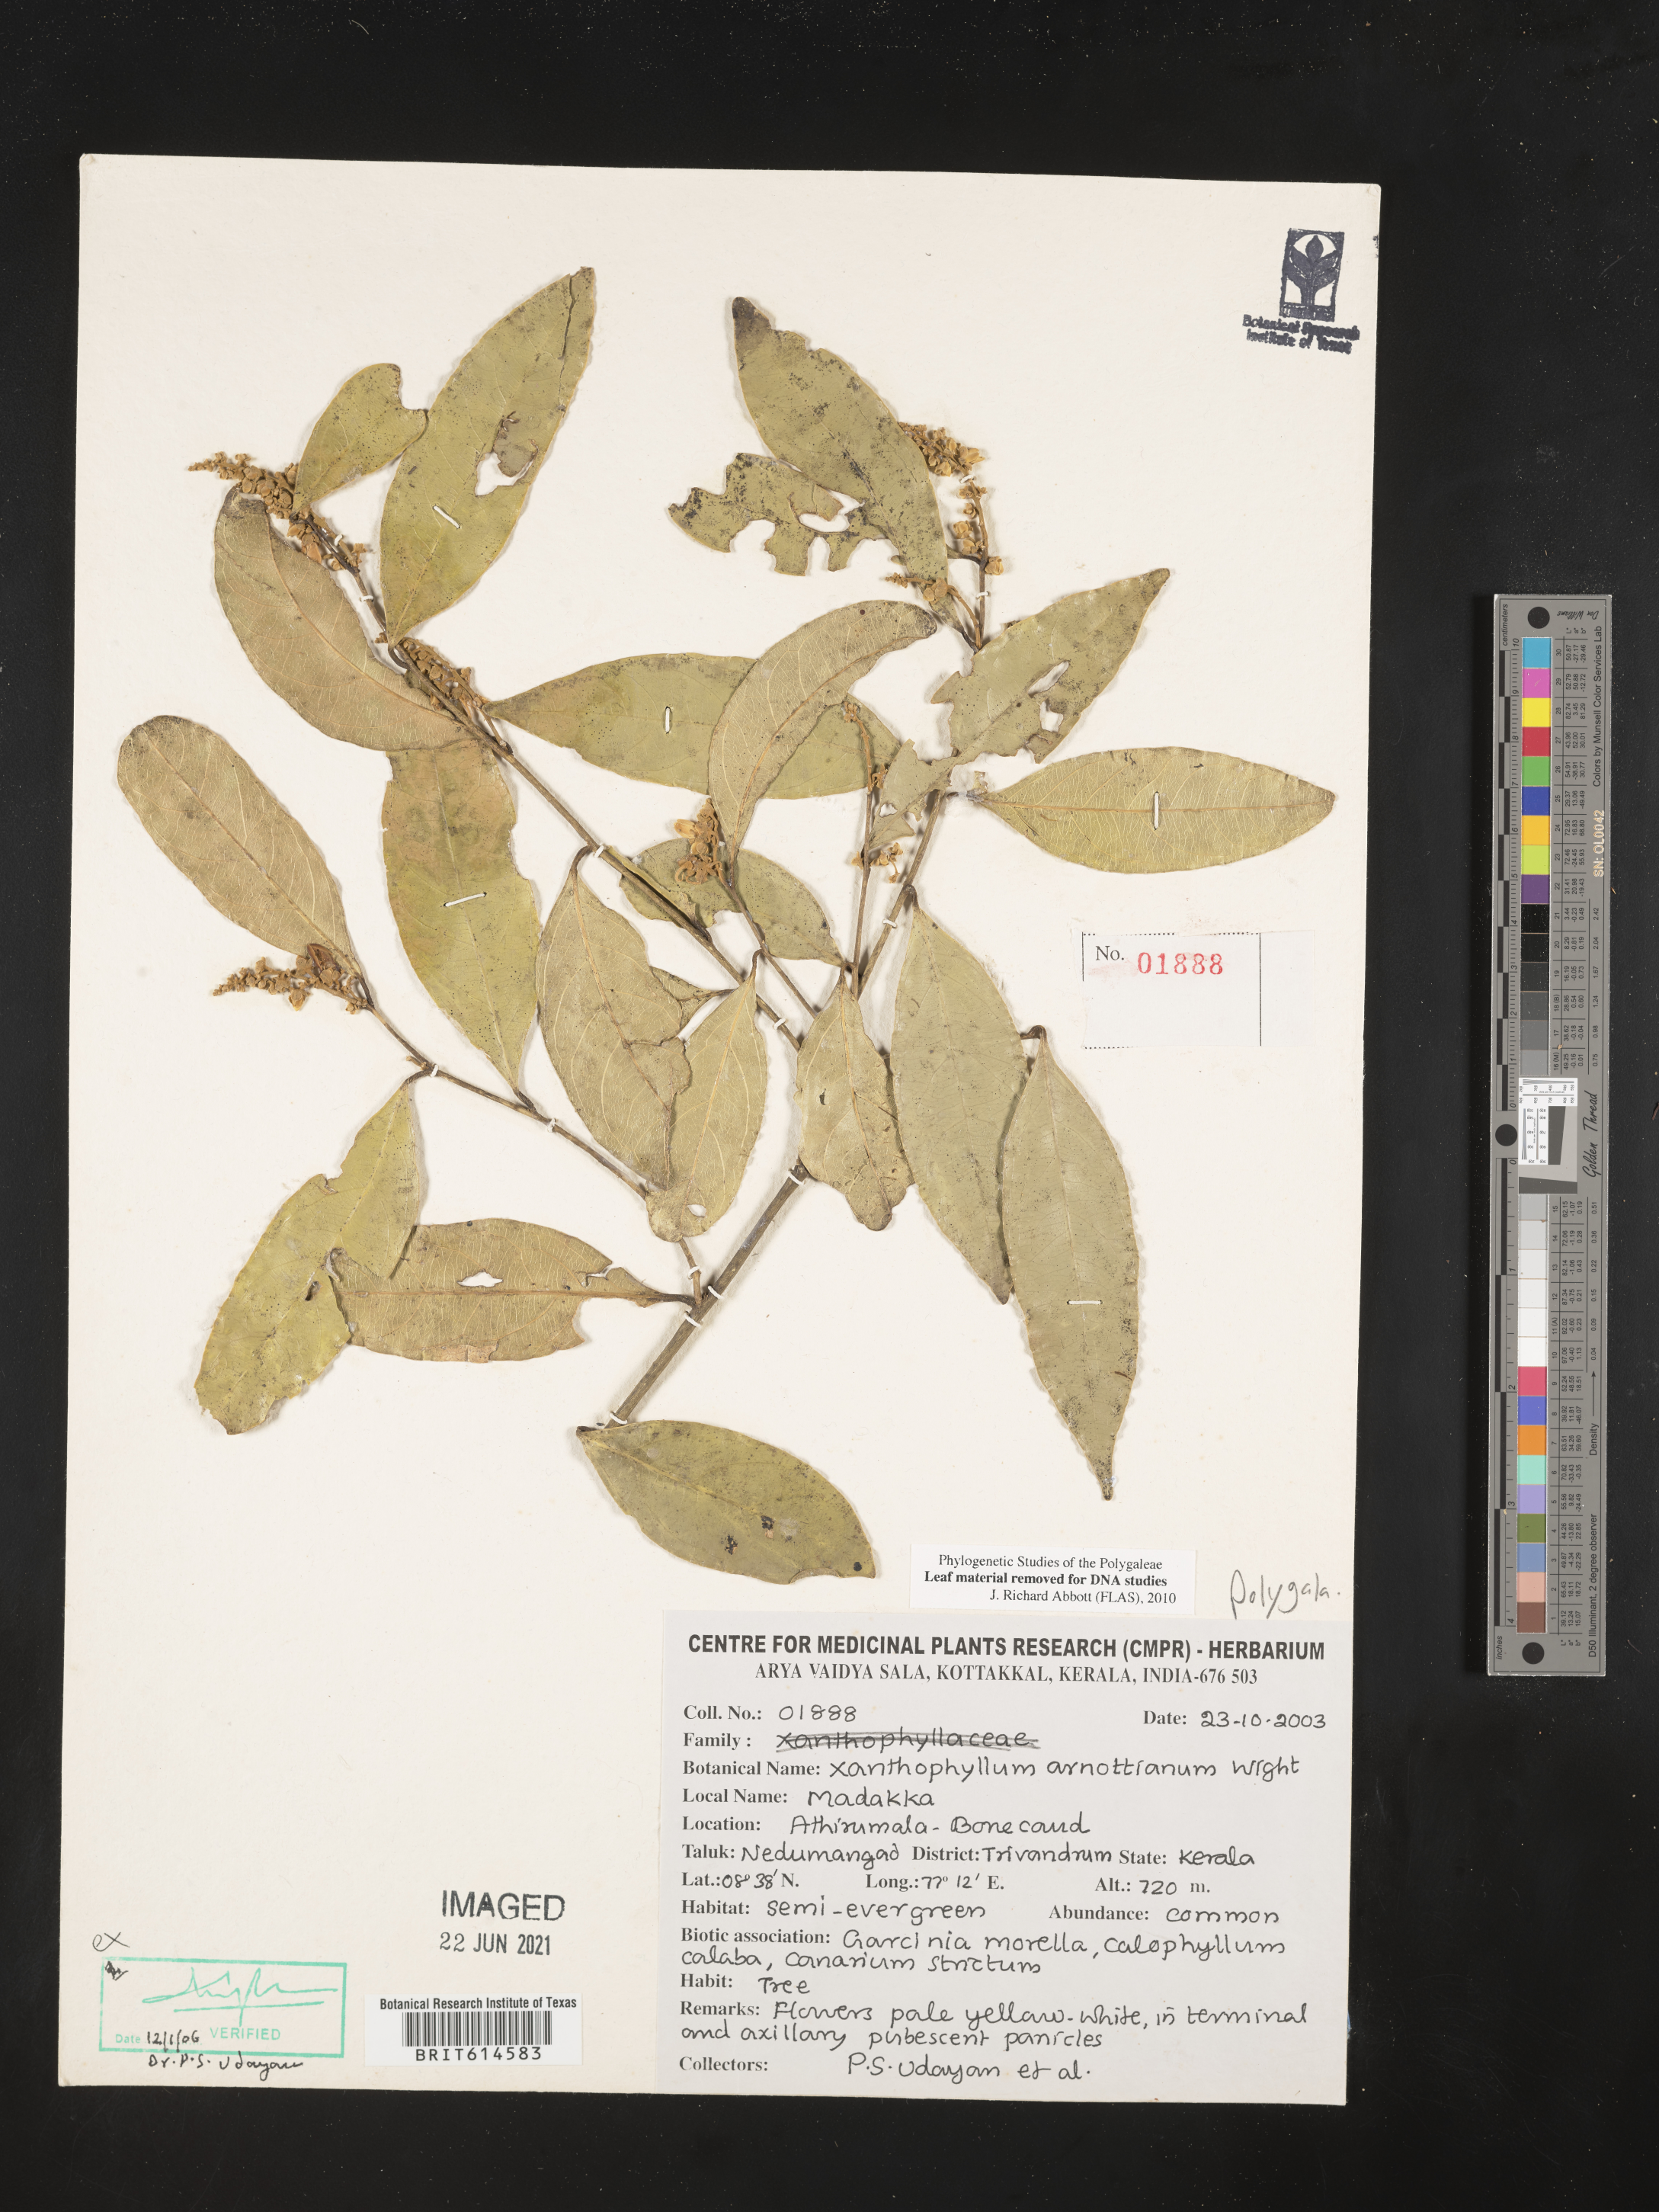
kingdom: Plantae
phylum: Tracheophyta
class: Magnoliopsida
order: Fabales
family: Polygalaceae
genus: Xanthophyllum
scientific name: Xanthophyllum flavescens
